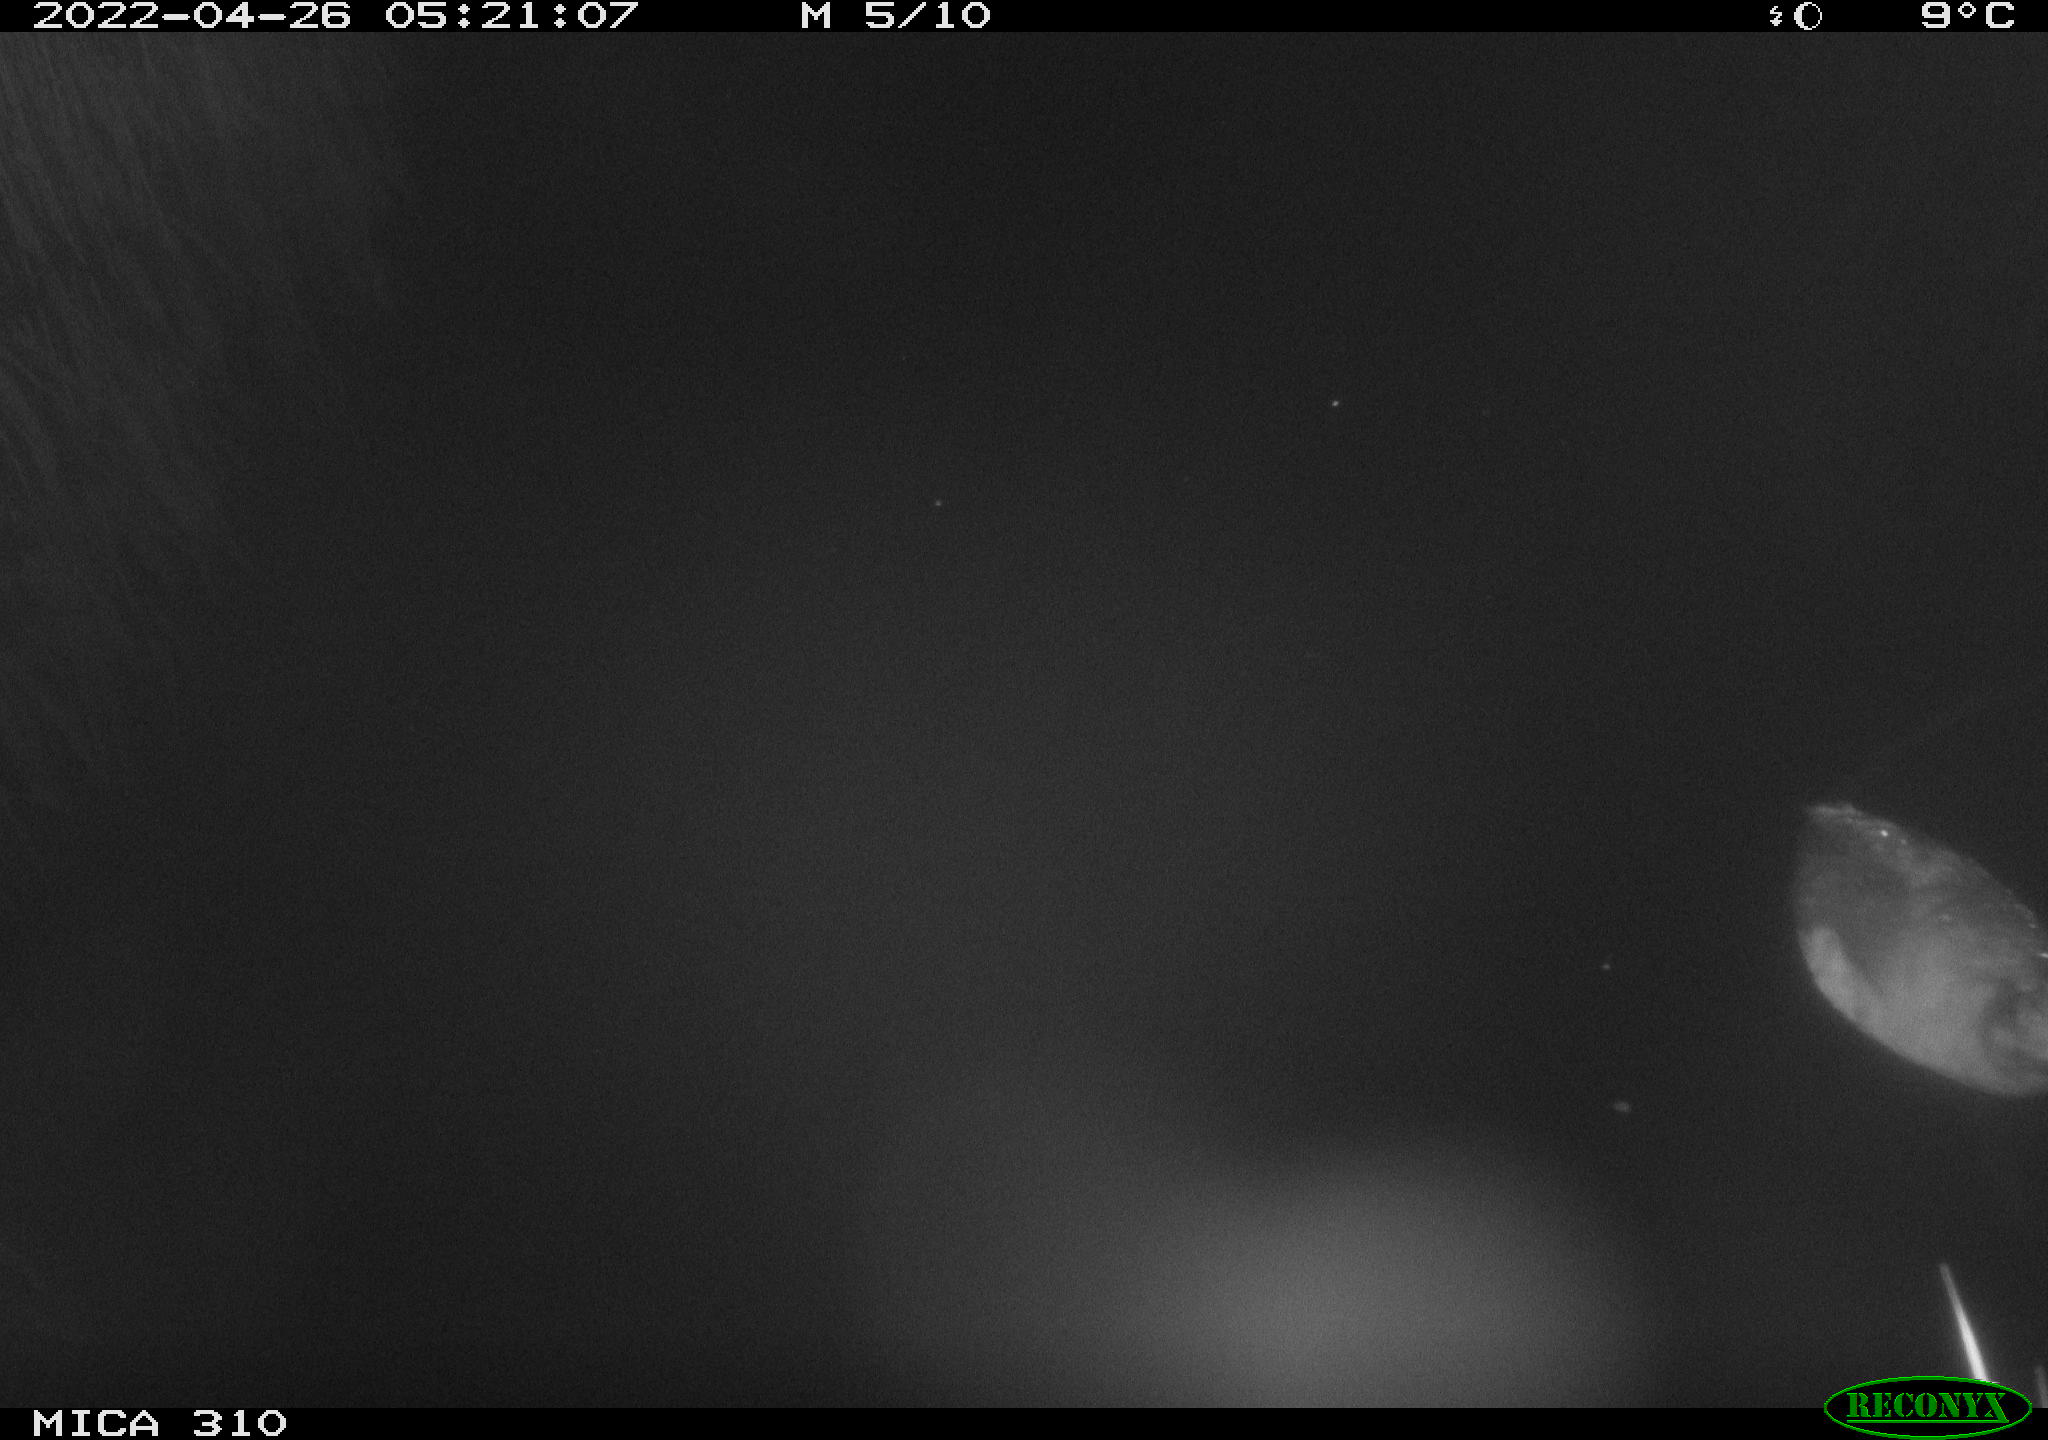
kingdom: Animalia
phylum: Chordata
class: Aves
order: Gruiformes
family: Rallidae
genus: Fulica
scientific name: Fulica atra
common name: Eurasian coot
